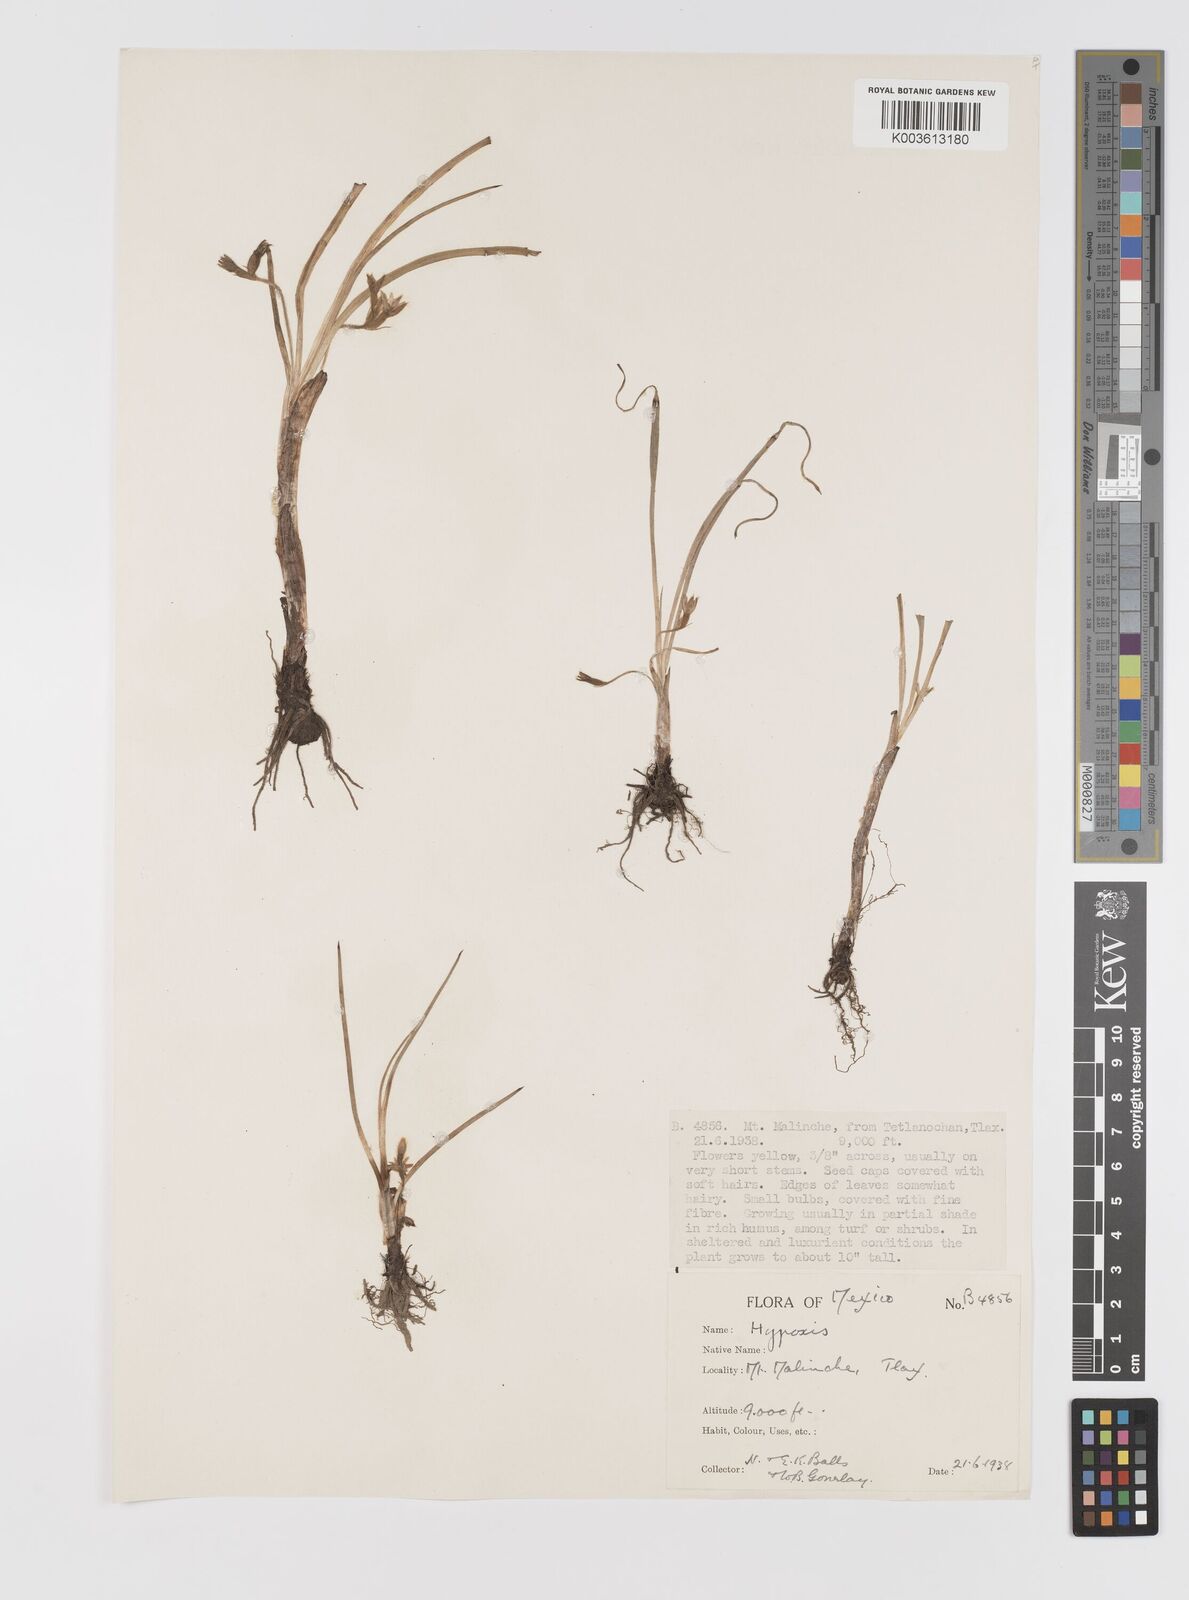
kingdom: Plantae
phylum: Tracheophyta
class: Liliopsida
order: Asparagales
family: Hypoxidaceae
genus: Hypoxis
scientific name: Hypoxis
